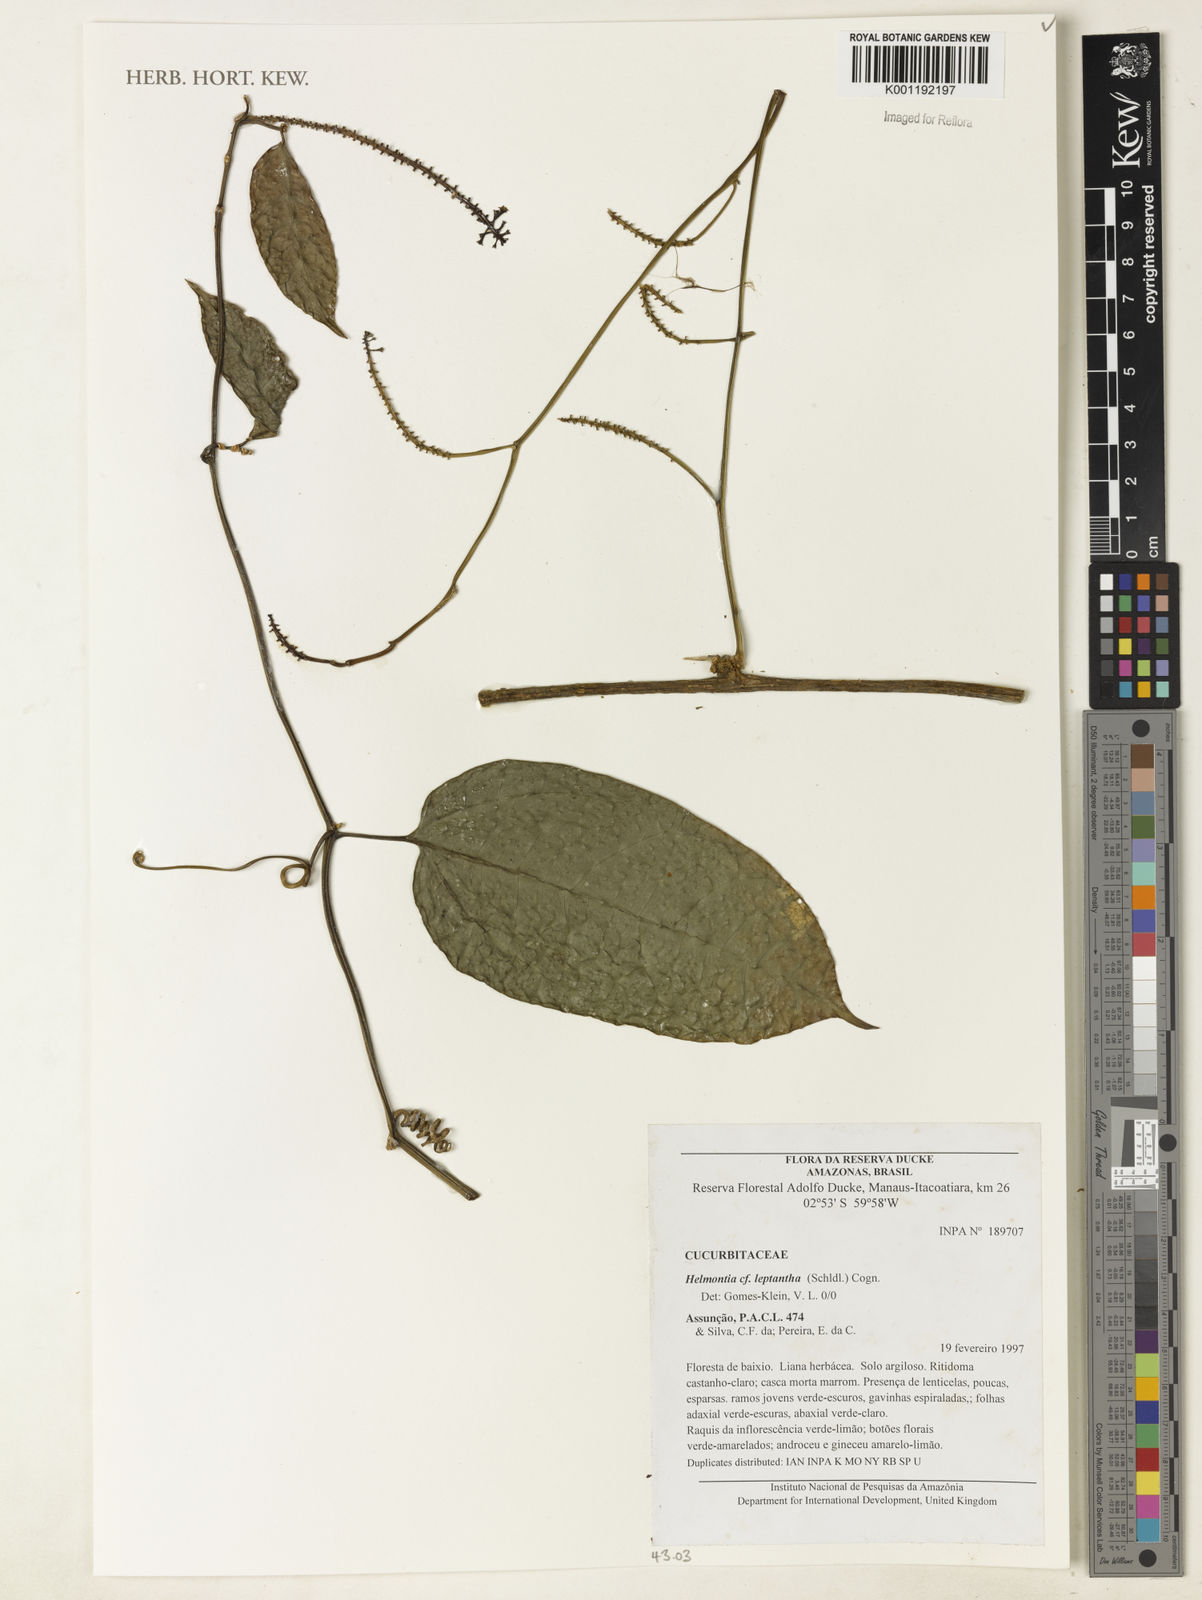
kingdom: Plantae
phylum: Tracheophyta
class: Magnoliopsida
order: Cucurbitales
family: Cucurbitaceae
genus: Helmontia
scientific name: Helmontia leptantha
